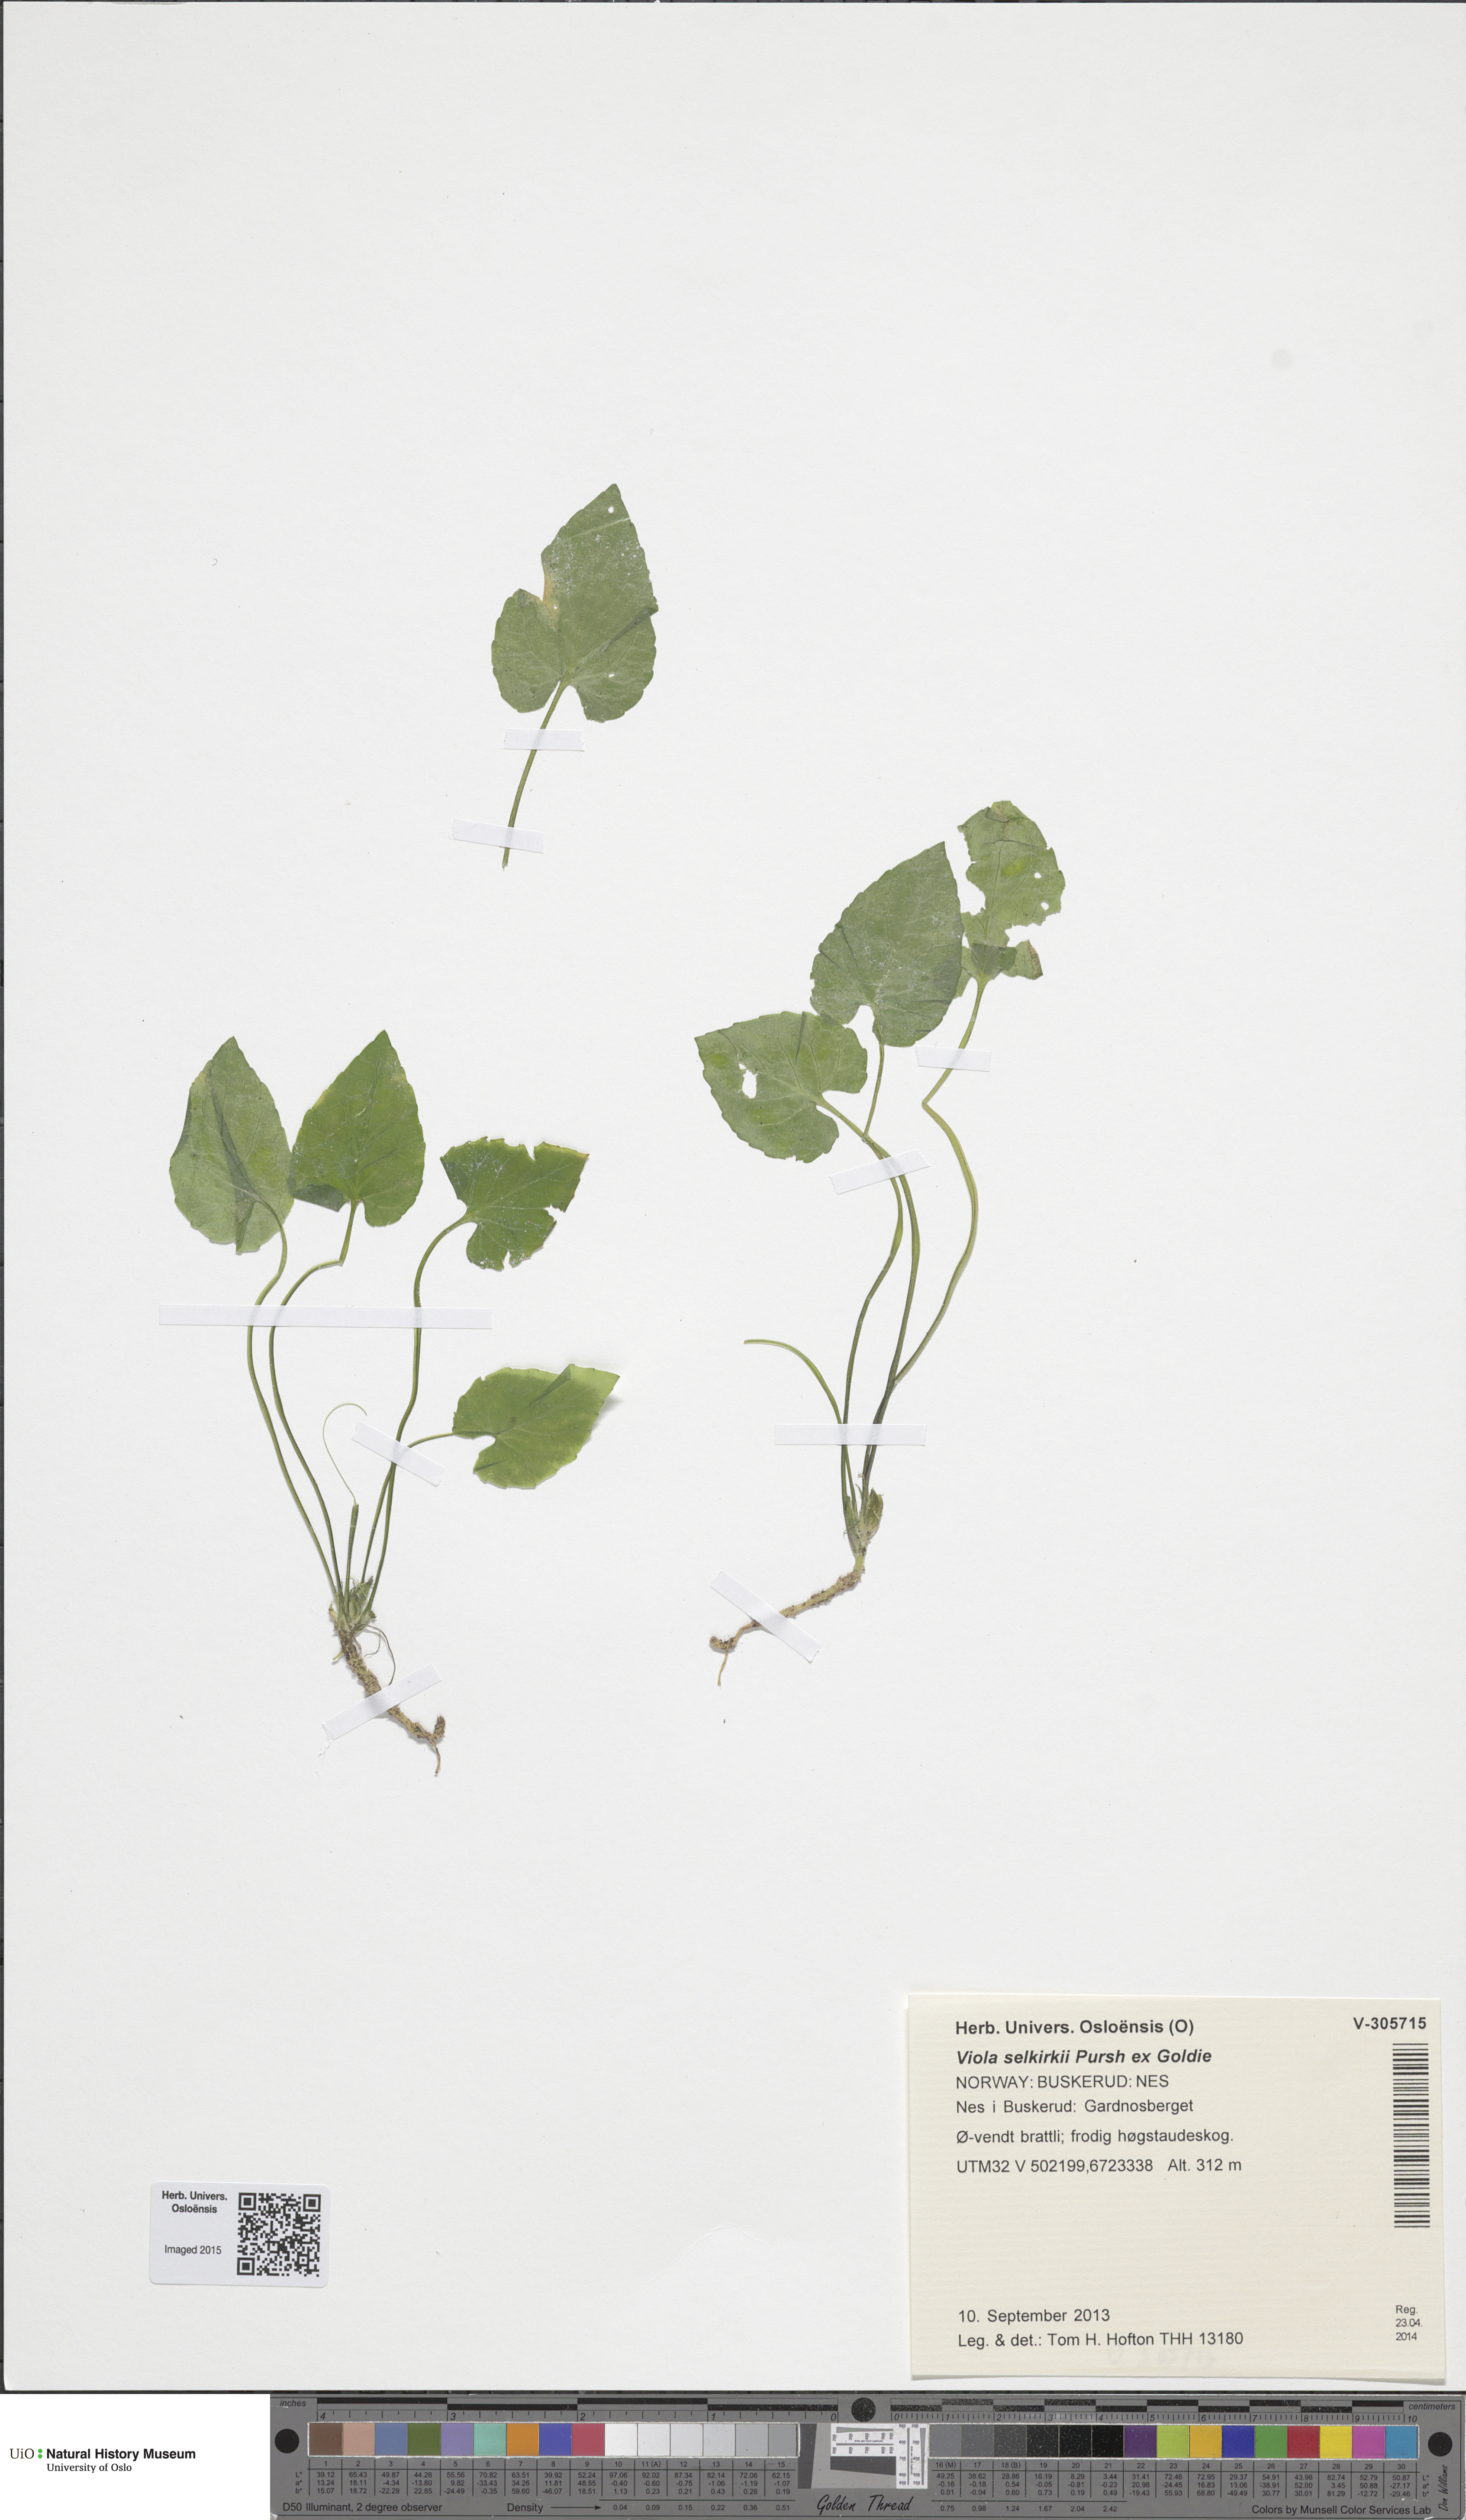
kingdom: Plantae
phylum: Tracheophyta
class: Magnoliopsida
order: Malpighiales
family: Violaceae
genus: Viola
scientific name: Viola selkirkii
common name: Selkirk's violet
